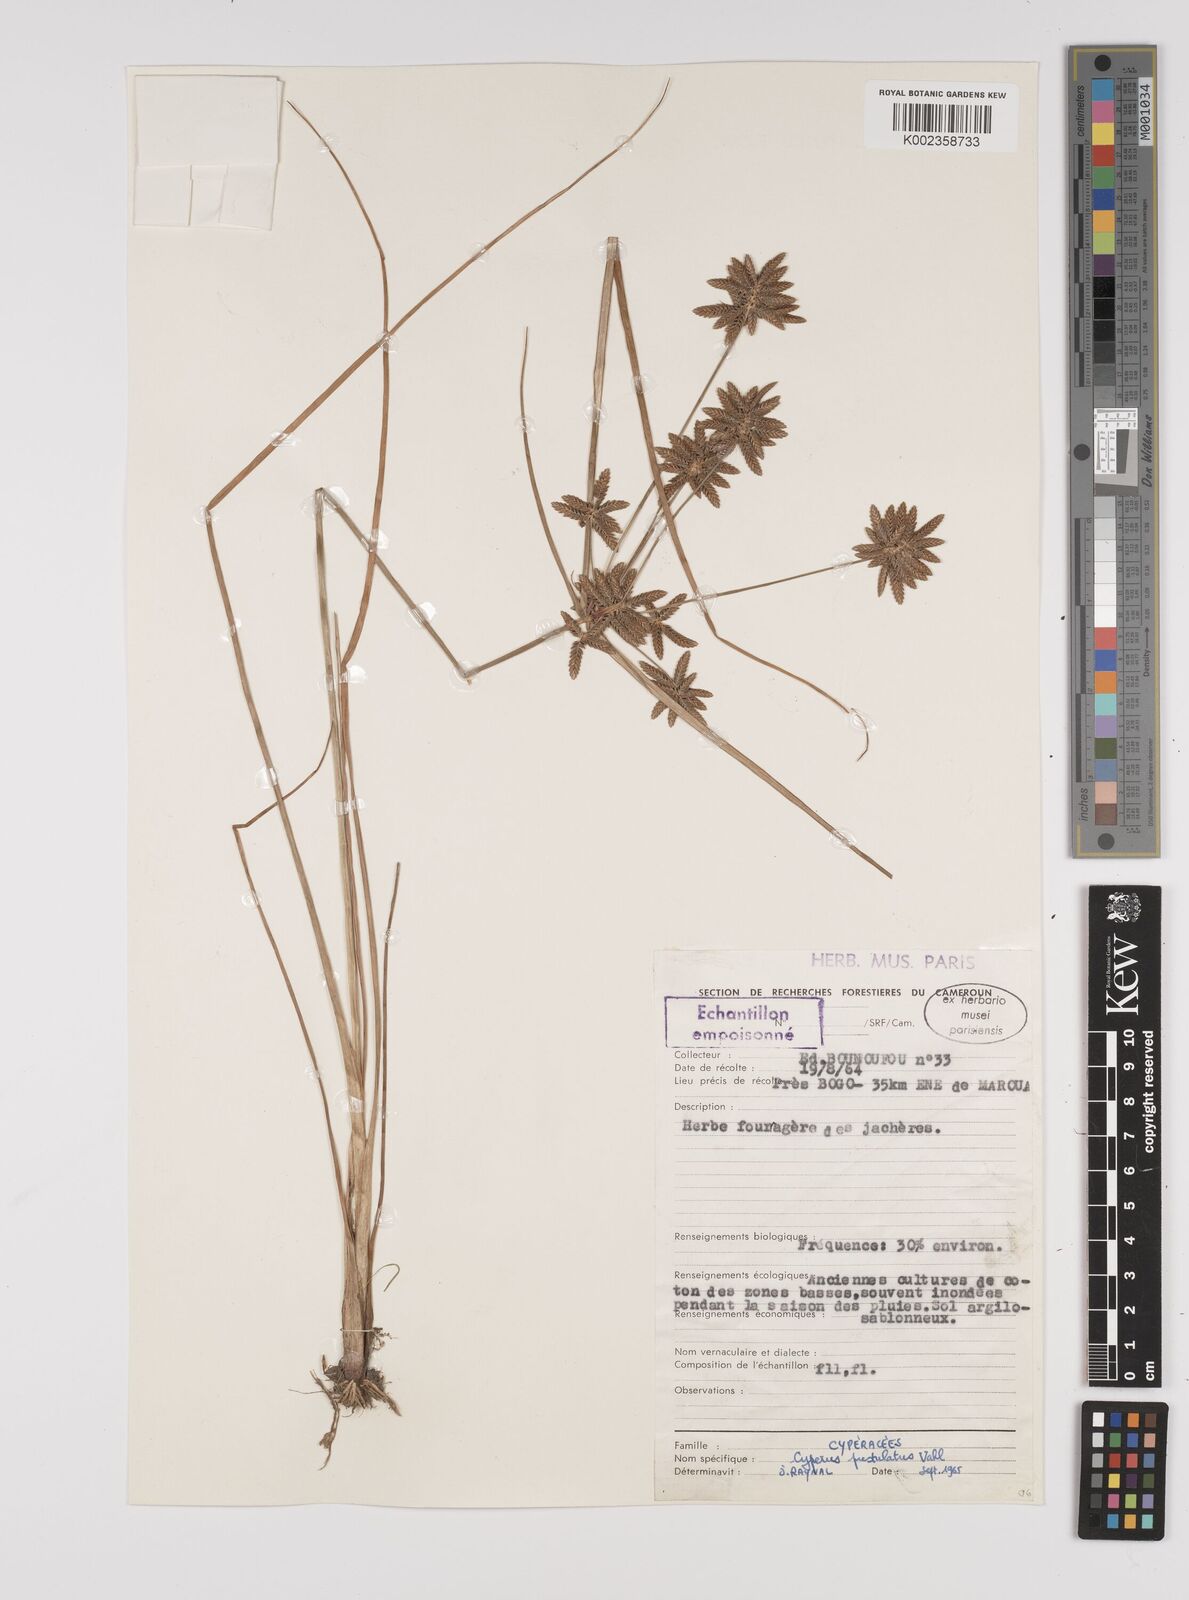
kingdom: Plantae
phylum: Tracheophyta
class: Liliopsida
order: Poales
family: Cyperaceae
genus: Cyperus
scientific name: Cyperus pustulatus
